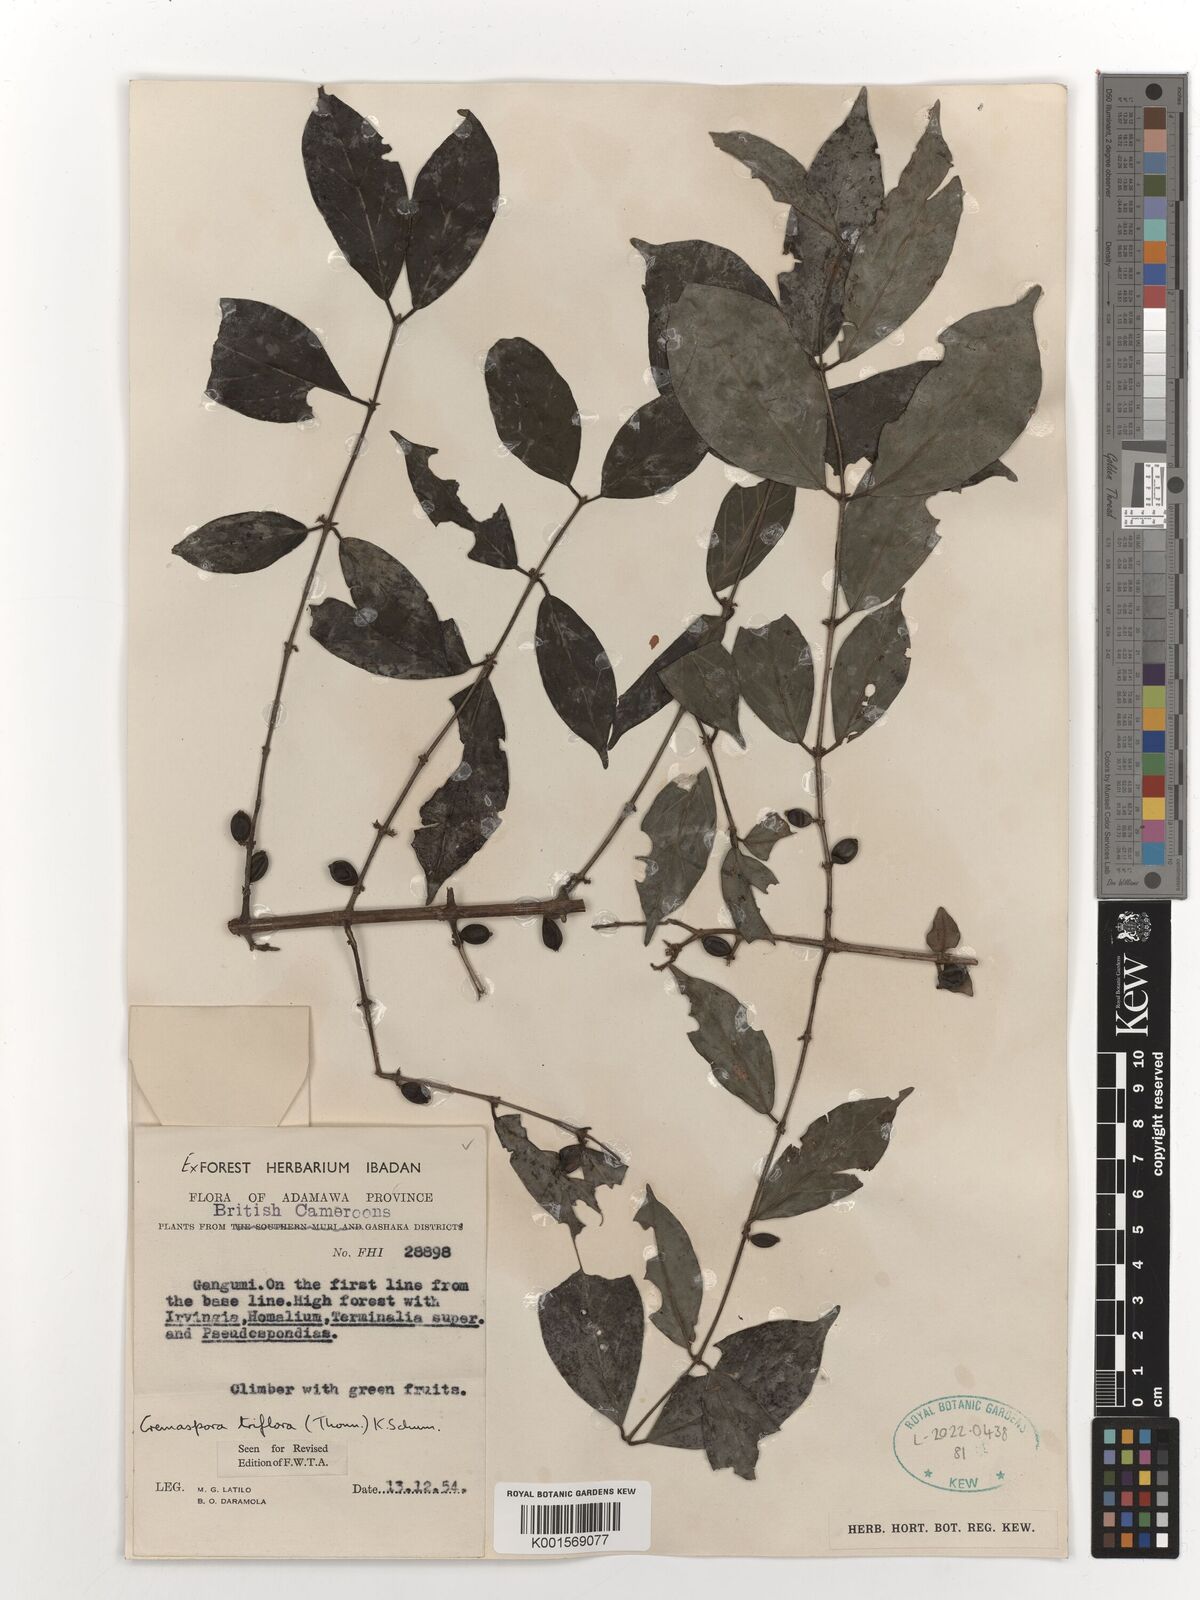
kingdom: Plantae
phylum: Tracheophyta
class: Magnoliopsida
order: Gentianales
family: Rubiaceae
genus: Cremaspora
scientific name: Cremaspora triflora
